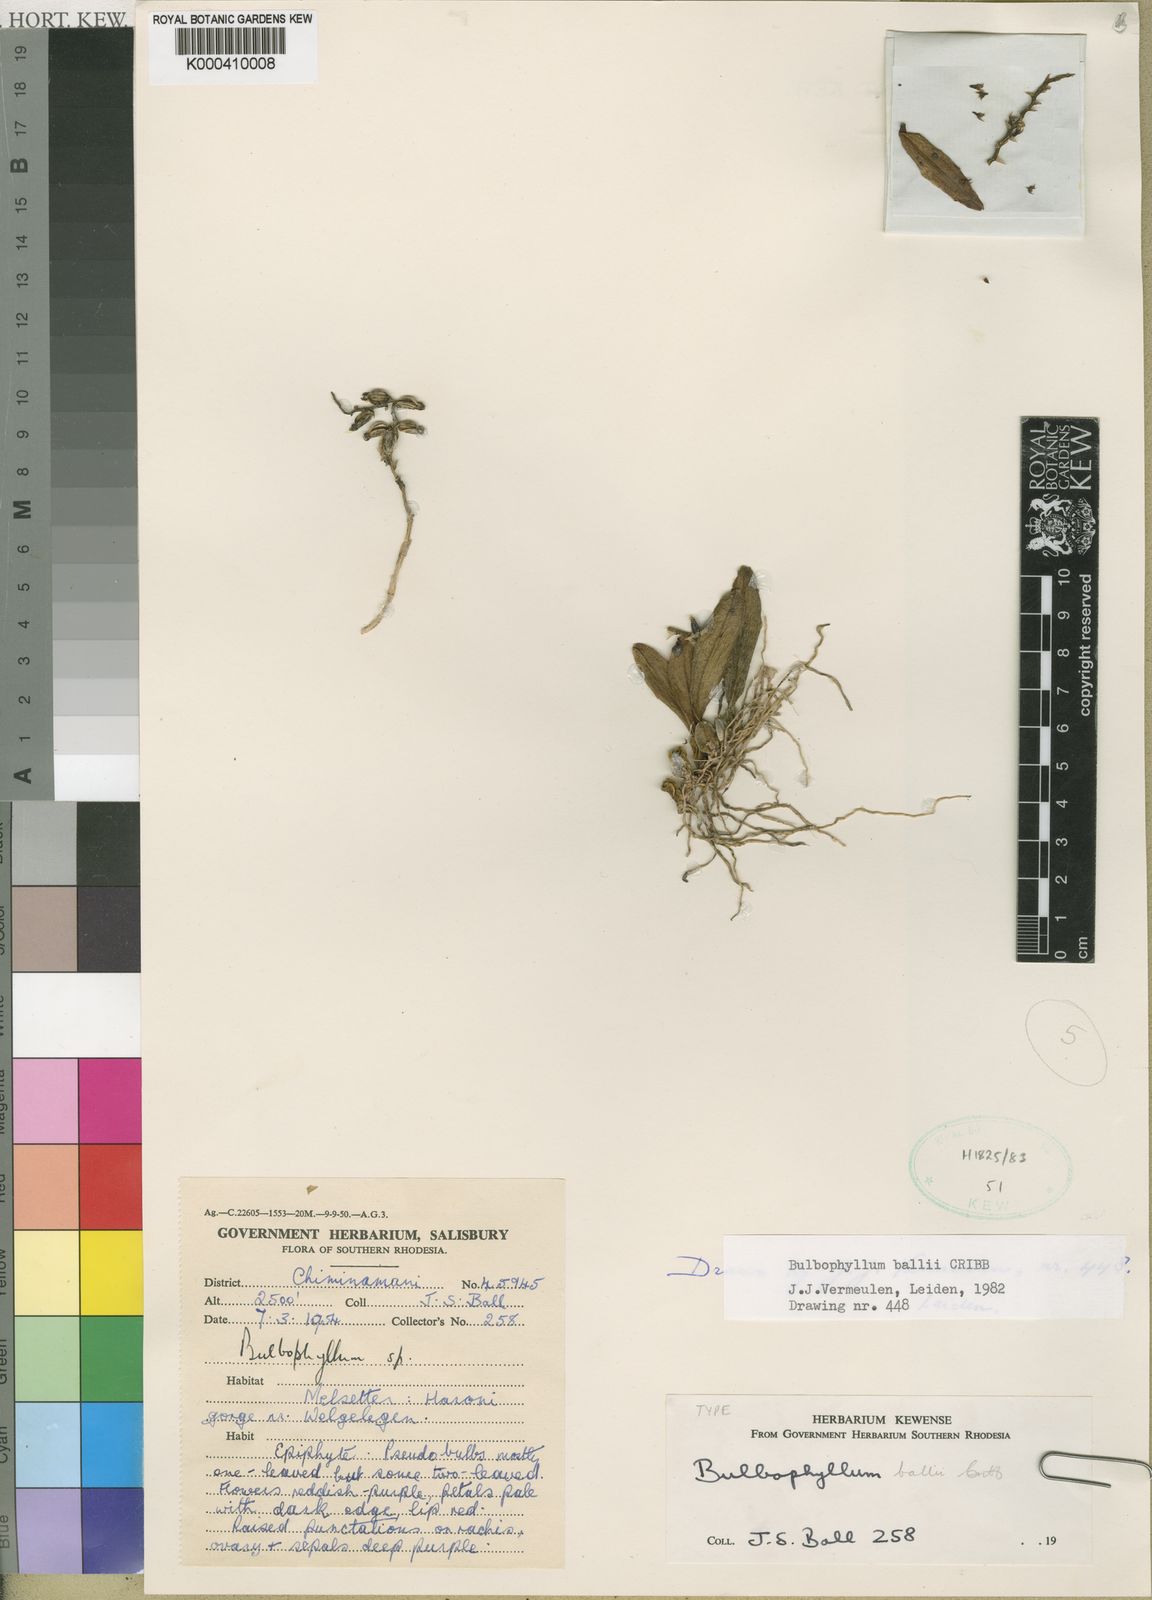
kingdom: Plantae
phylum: Tracheophyta
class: Liliopsida
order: Asparagales
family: Orchidaceae
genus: Bulbophyllum
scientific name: Bulbophyllum ballii
